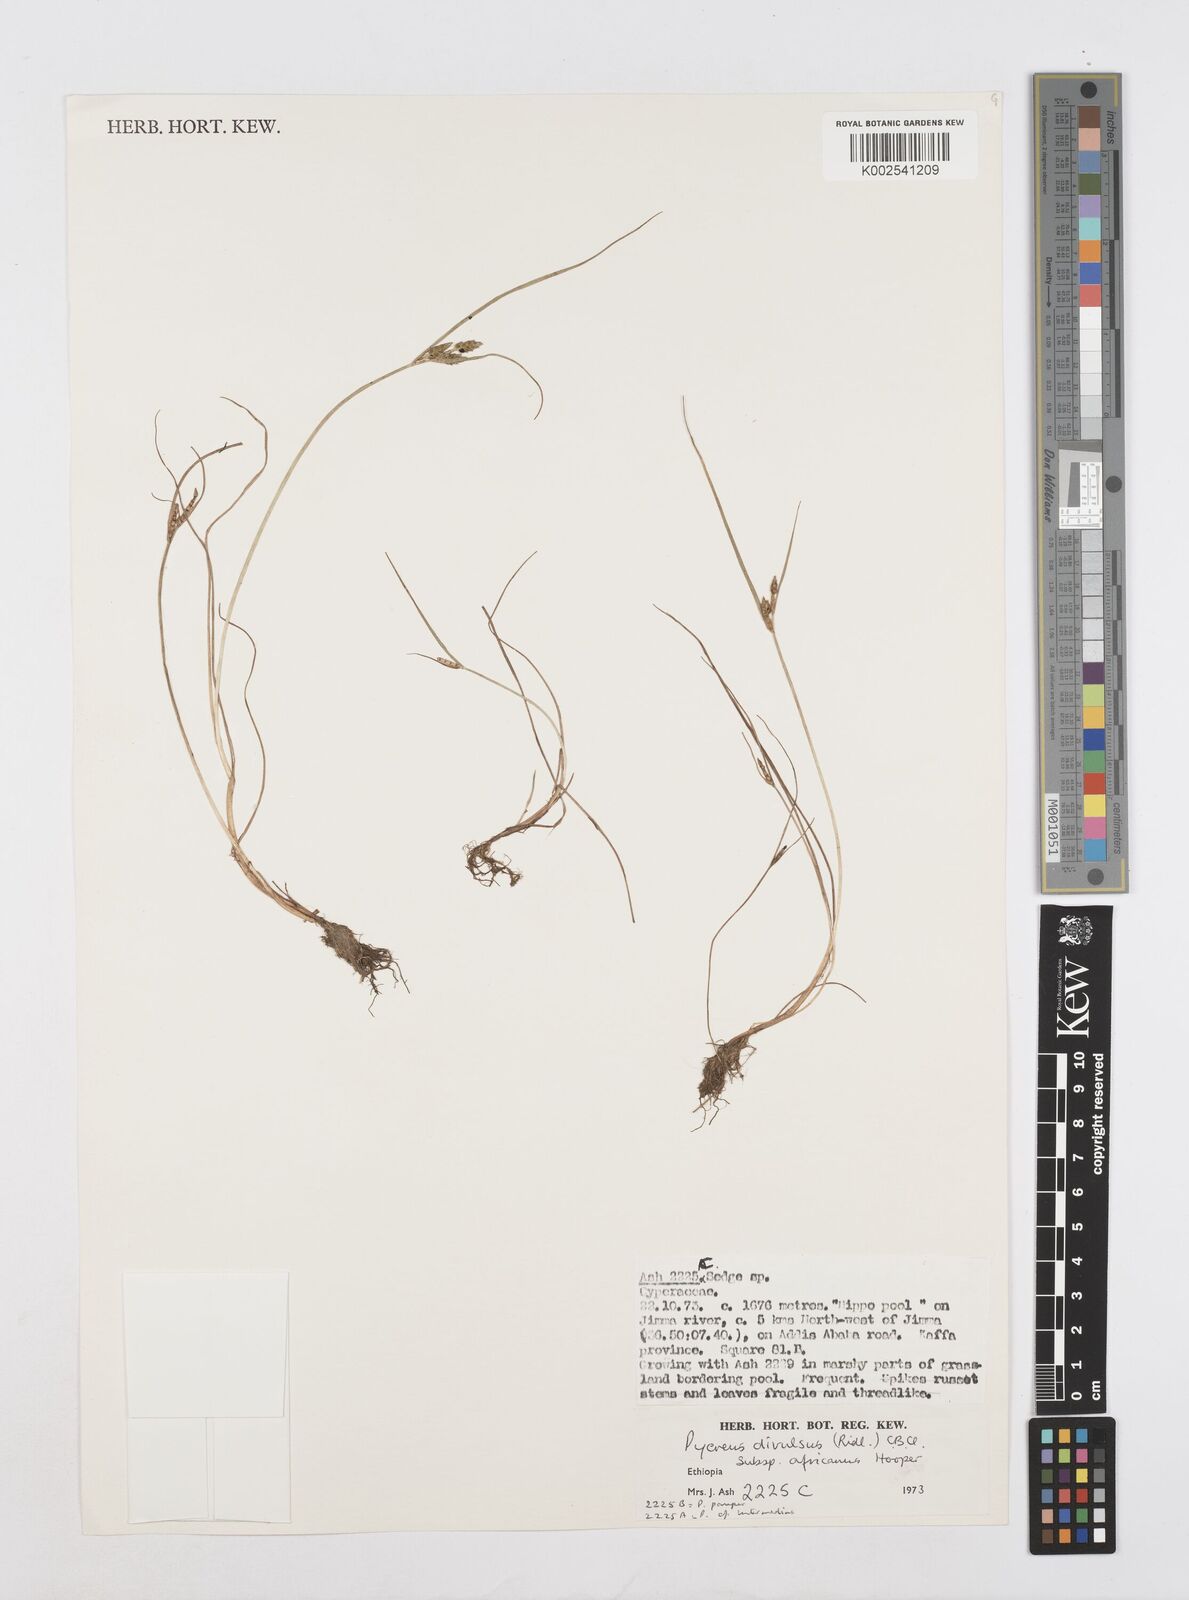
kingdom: Plantae
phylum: Tracheophyta
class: Liliopsida
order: Poales
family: Cyperaceae
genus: Cyperus
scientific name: Cyperus divulsus
